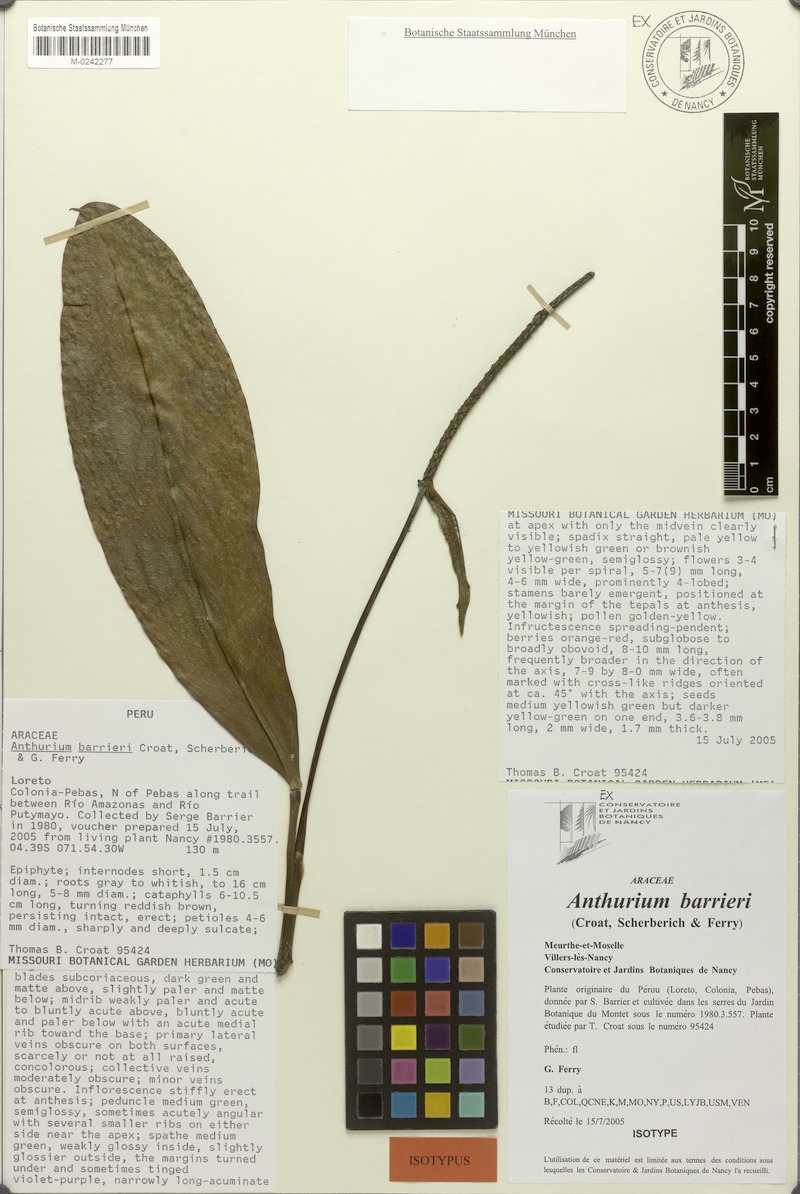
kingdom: Plantae
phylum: Tracheophyta
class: Liliopsida
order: Alismatales
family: Araceae
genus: Anthurium
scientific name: Anthurium barrieri
